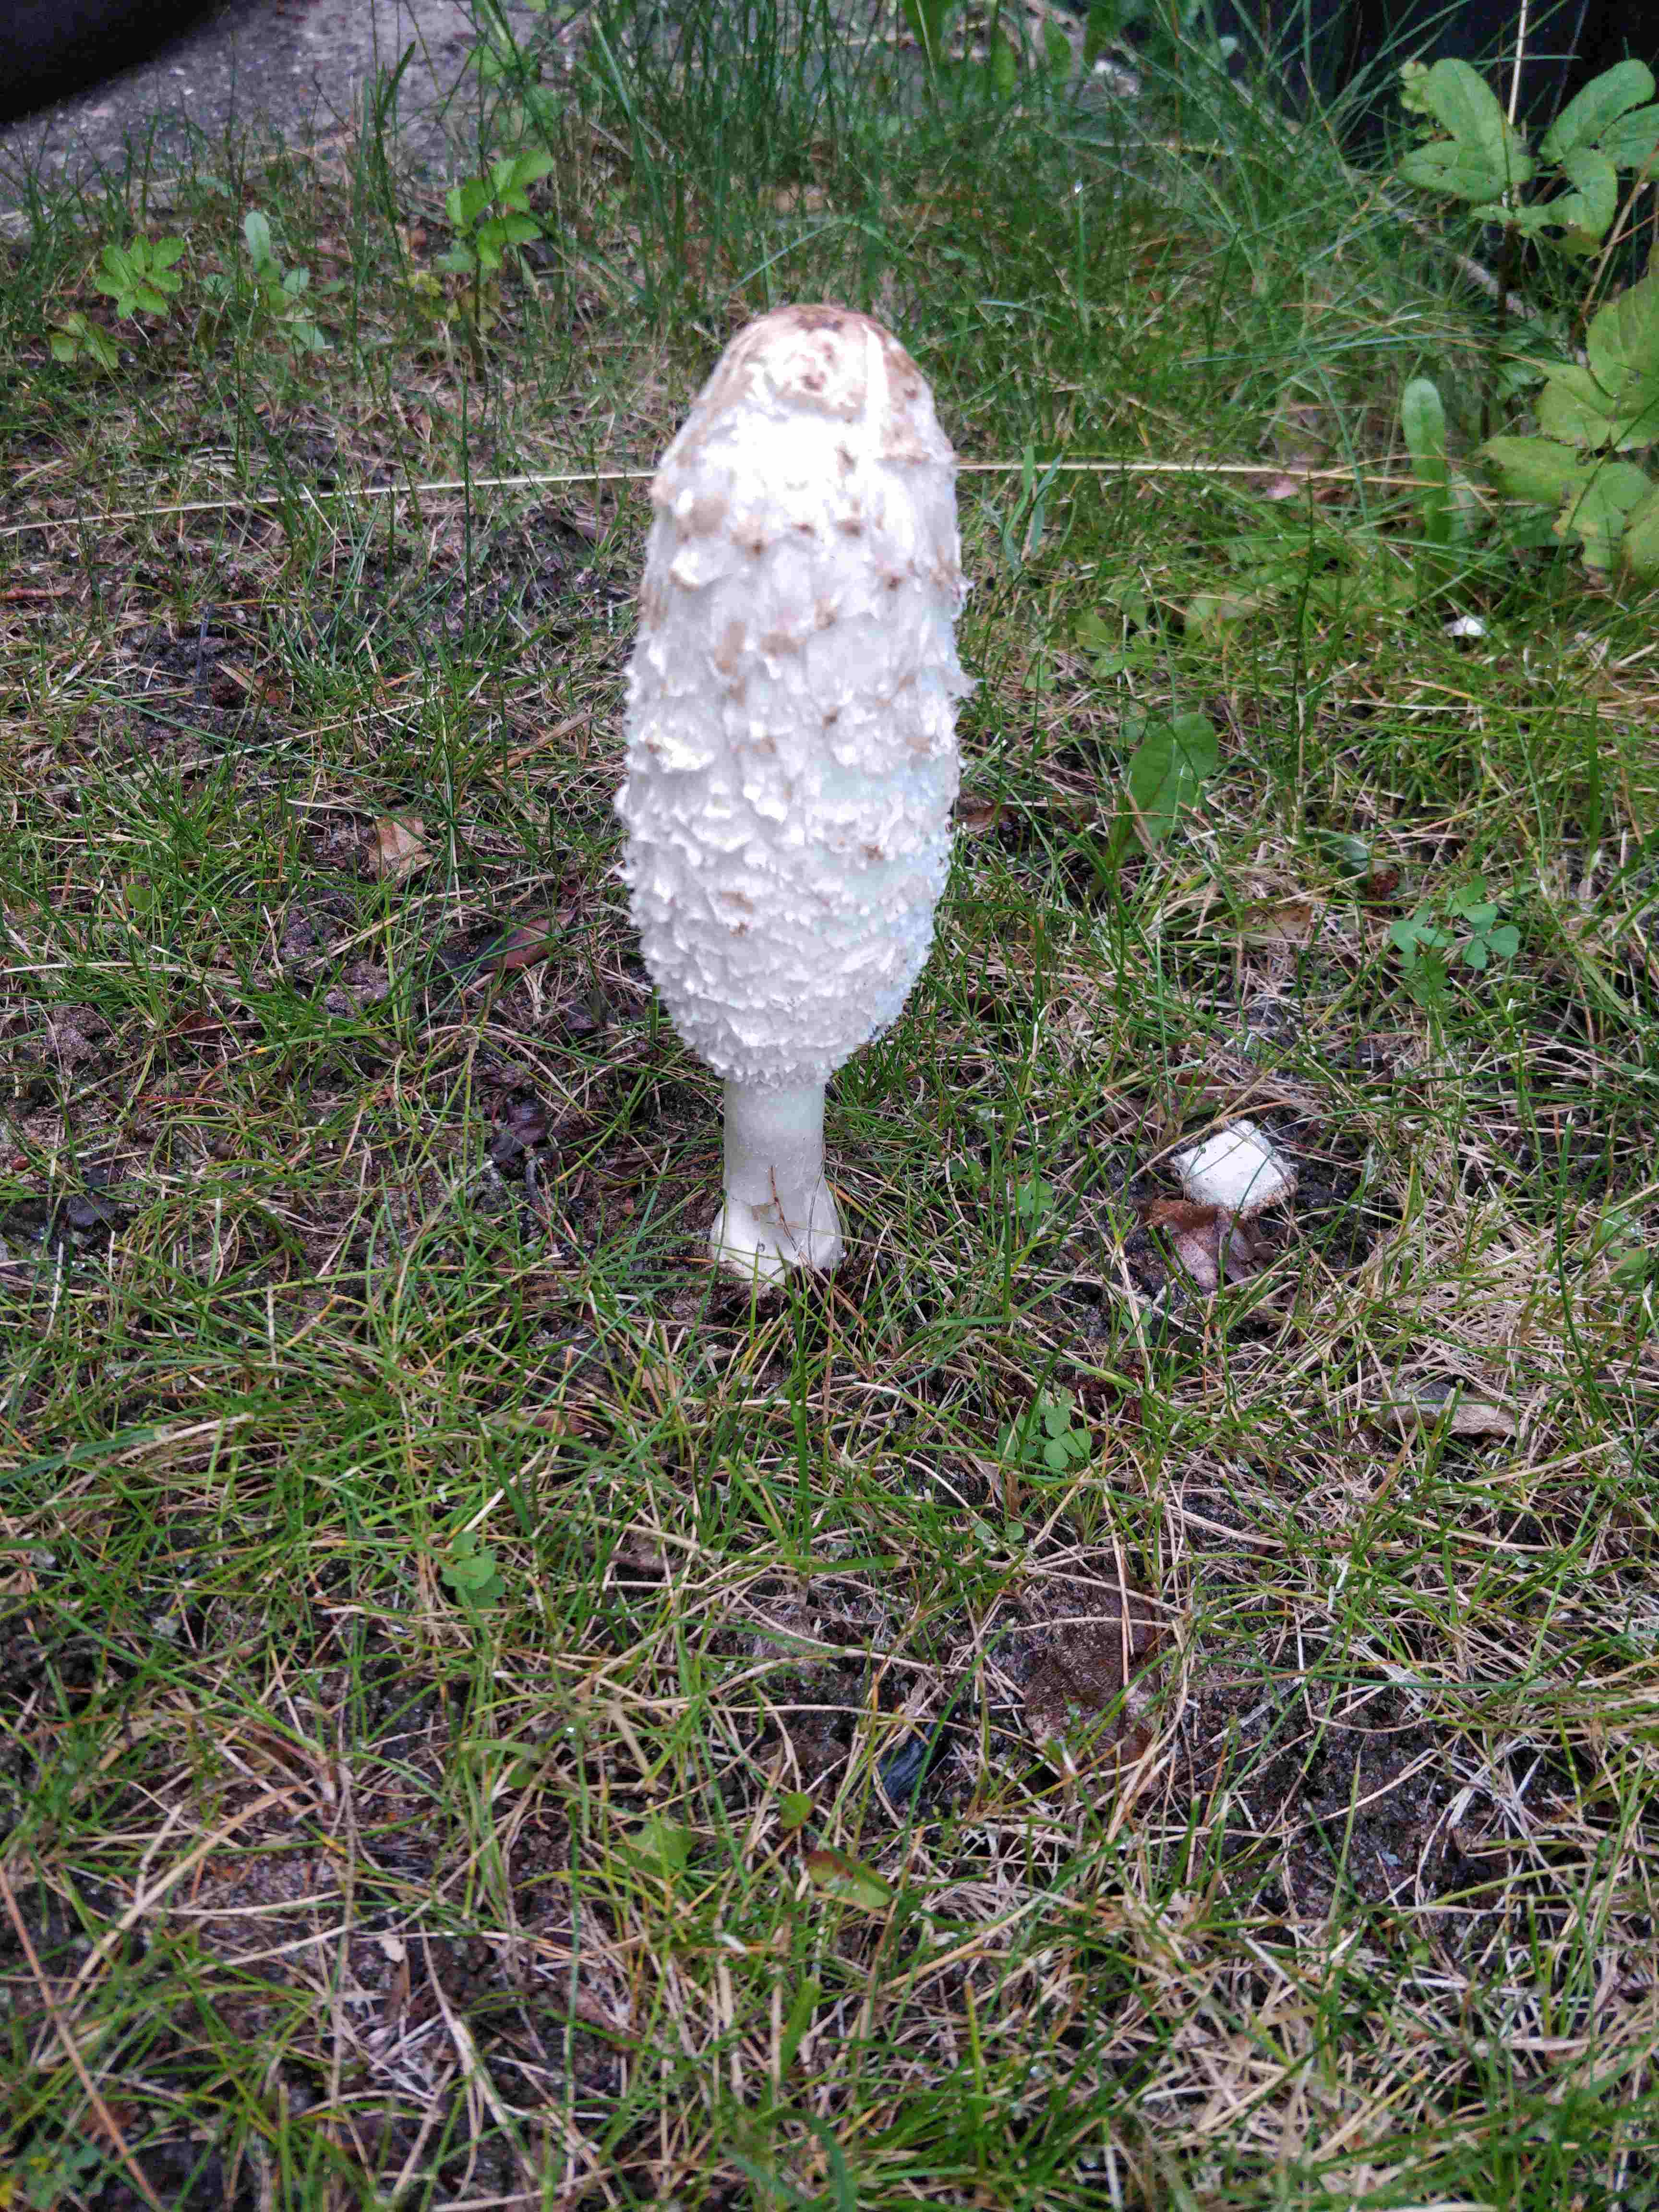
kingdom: Fungi
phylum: Basidiomycota
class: Agaricomycetes
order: Agaricales
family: Agaricaceae
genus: Coprinus
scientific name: Coprinus comatus
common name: stor parykhat
